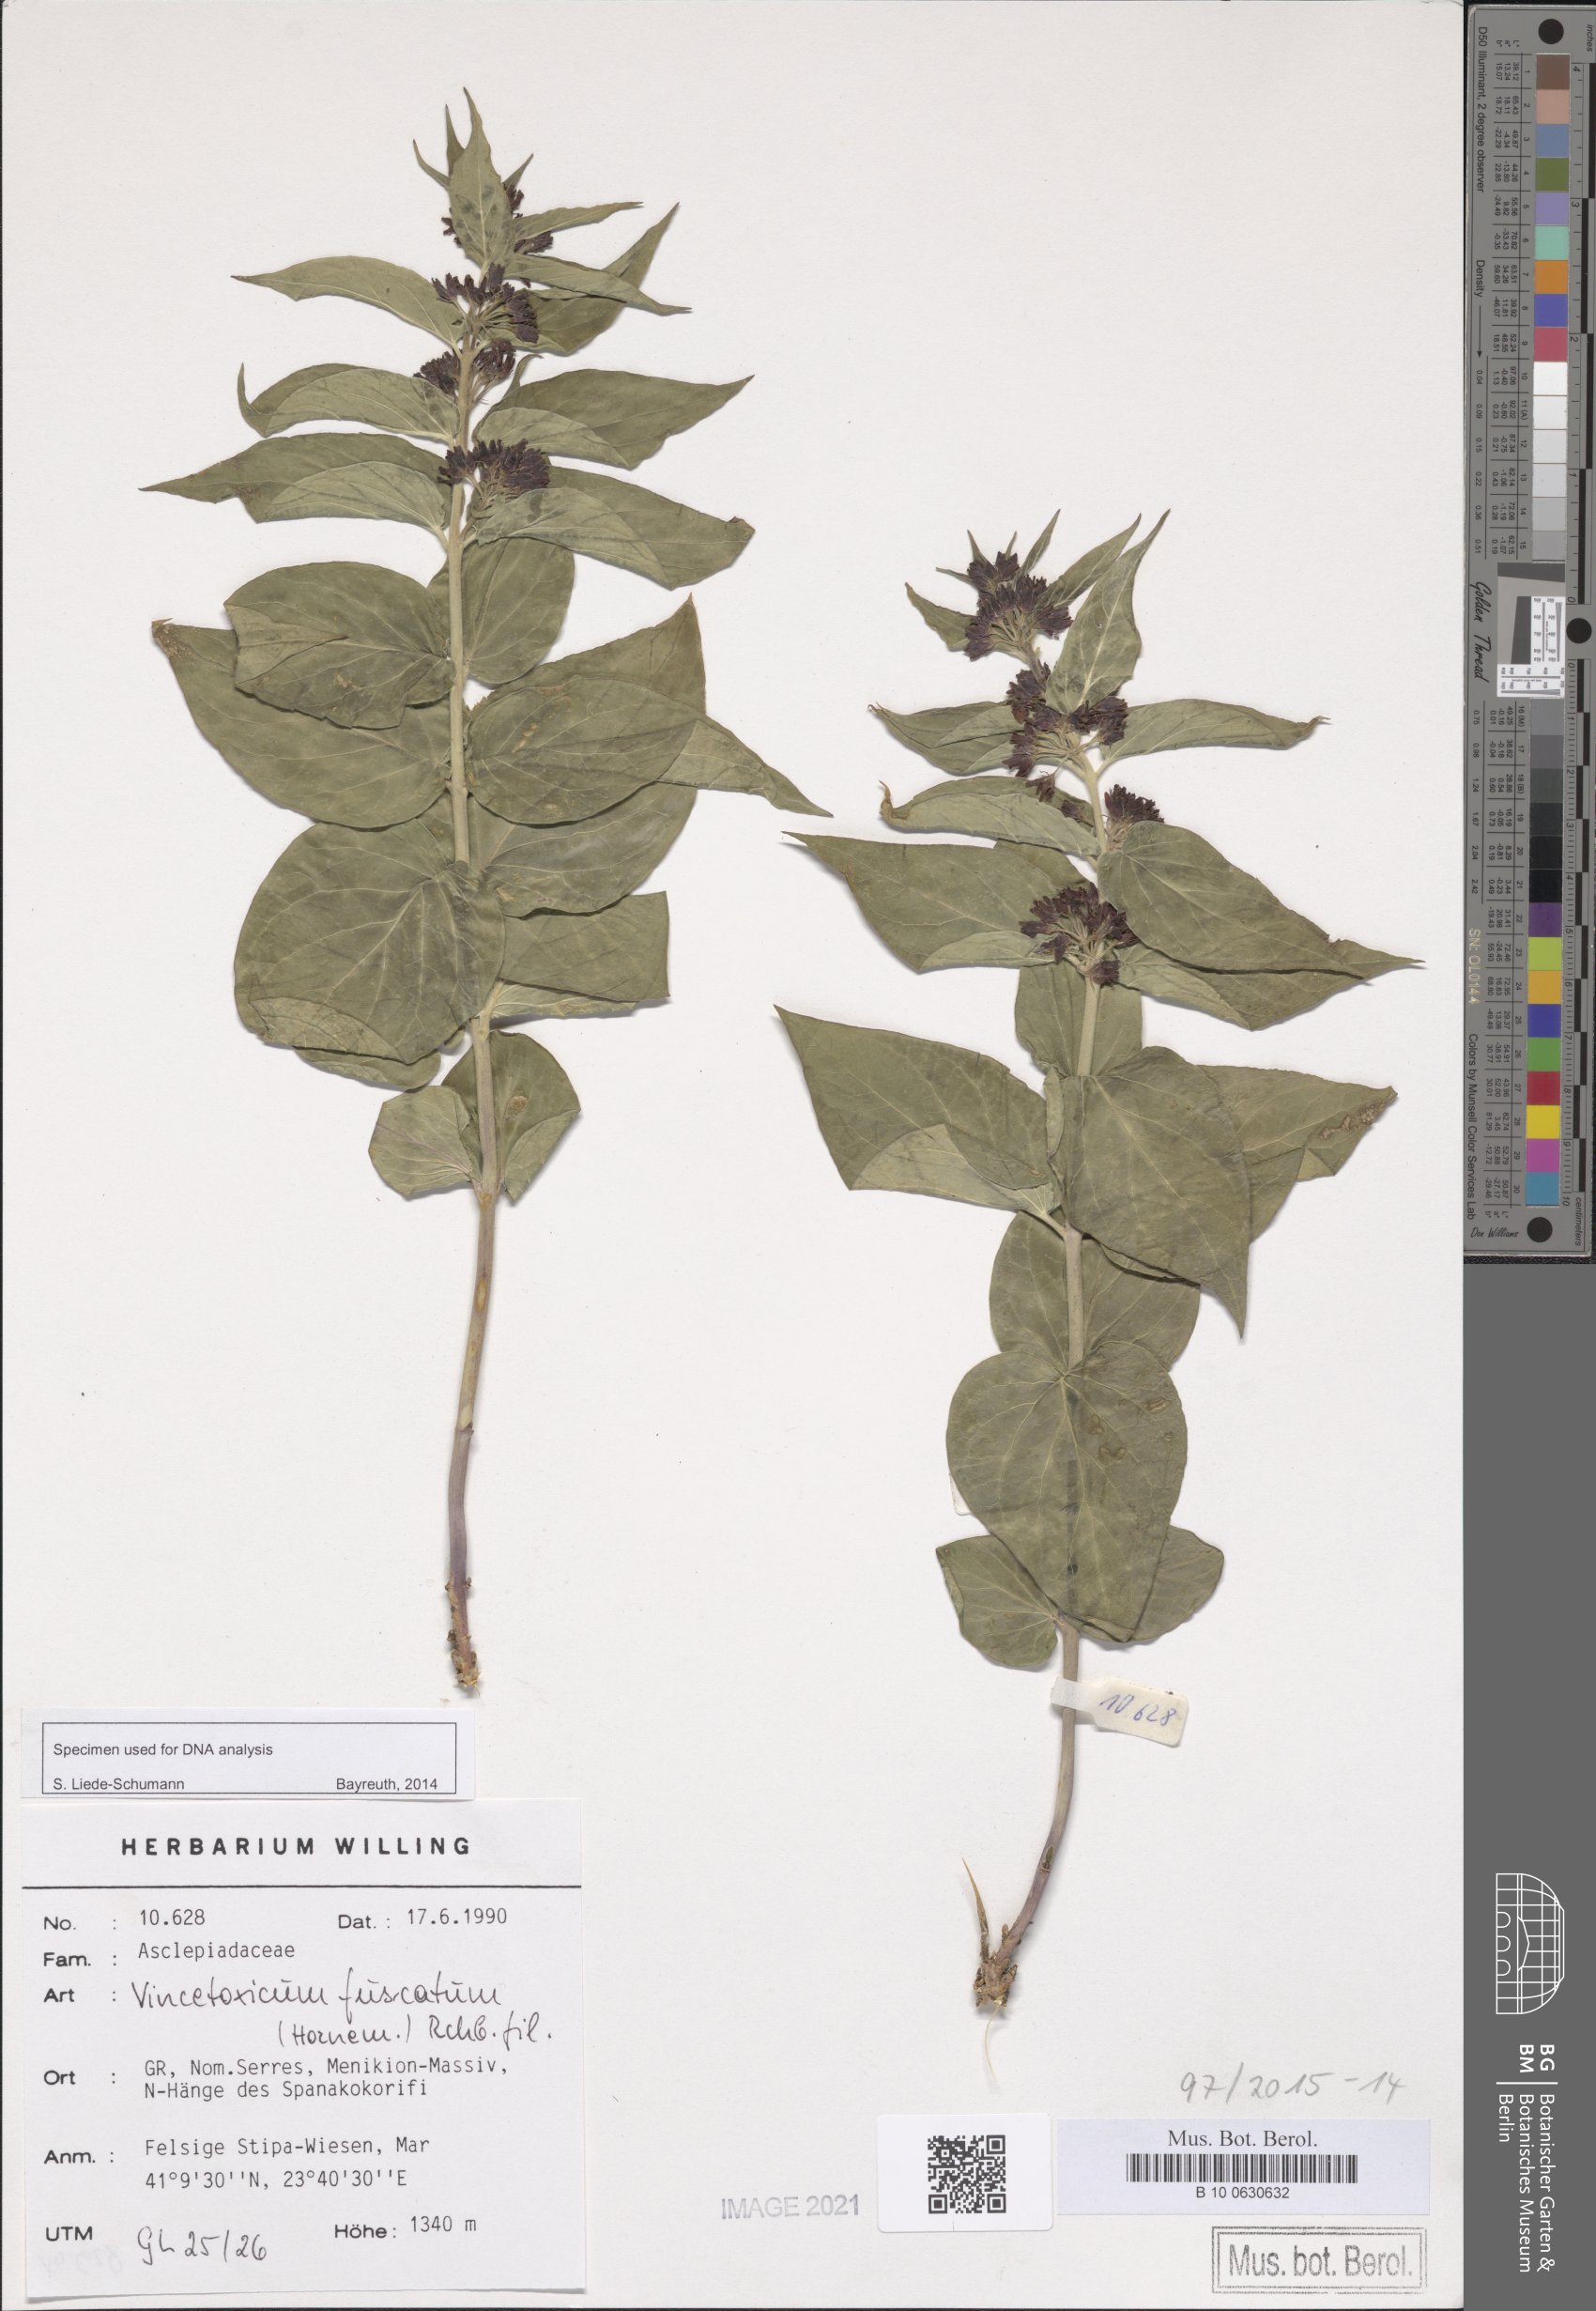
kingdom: Plantae
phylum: Tracheophyta
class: Magnoliopsida
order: Gentianales
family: Apocynaceae
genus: Vincetoxicum
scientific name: Vincetoxicum fuscatum
